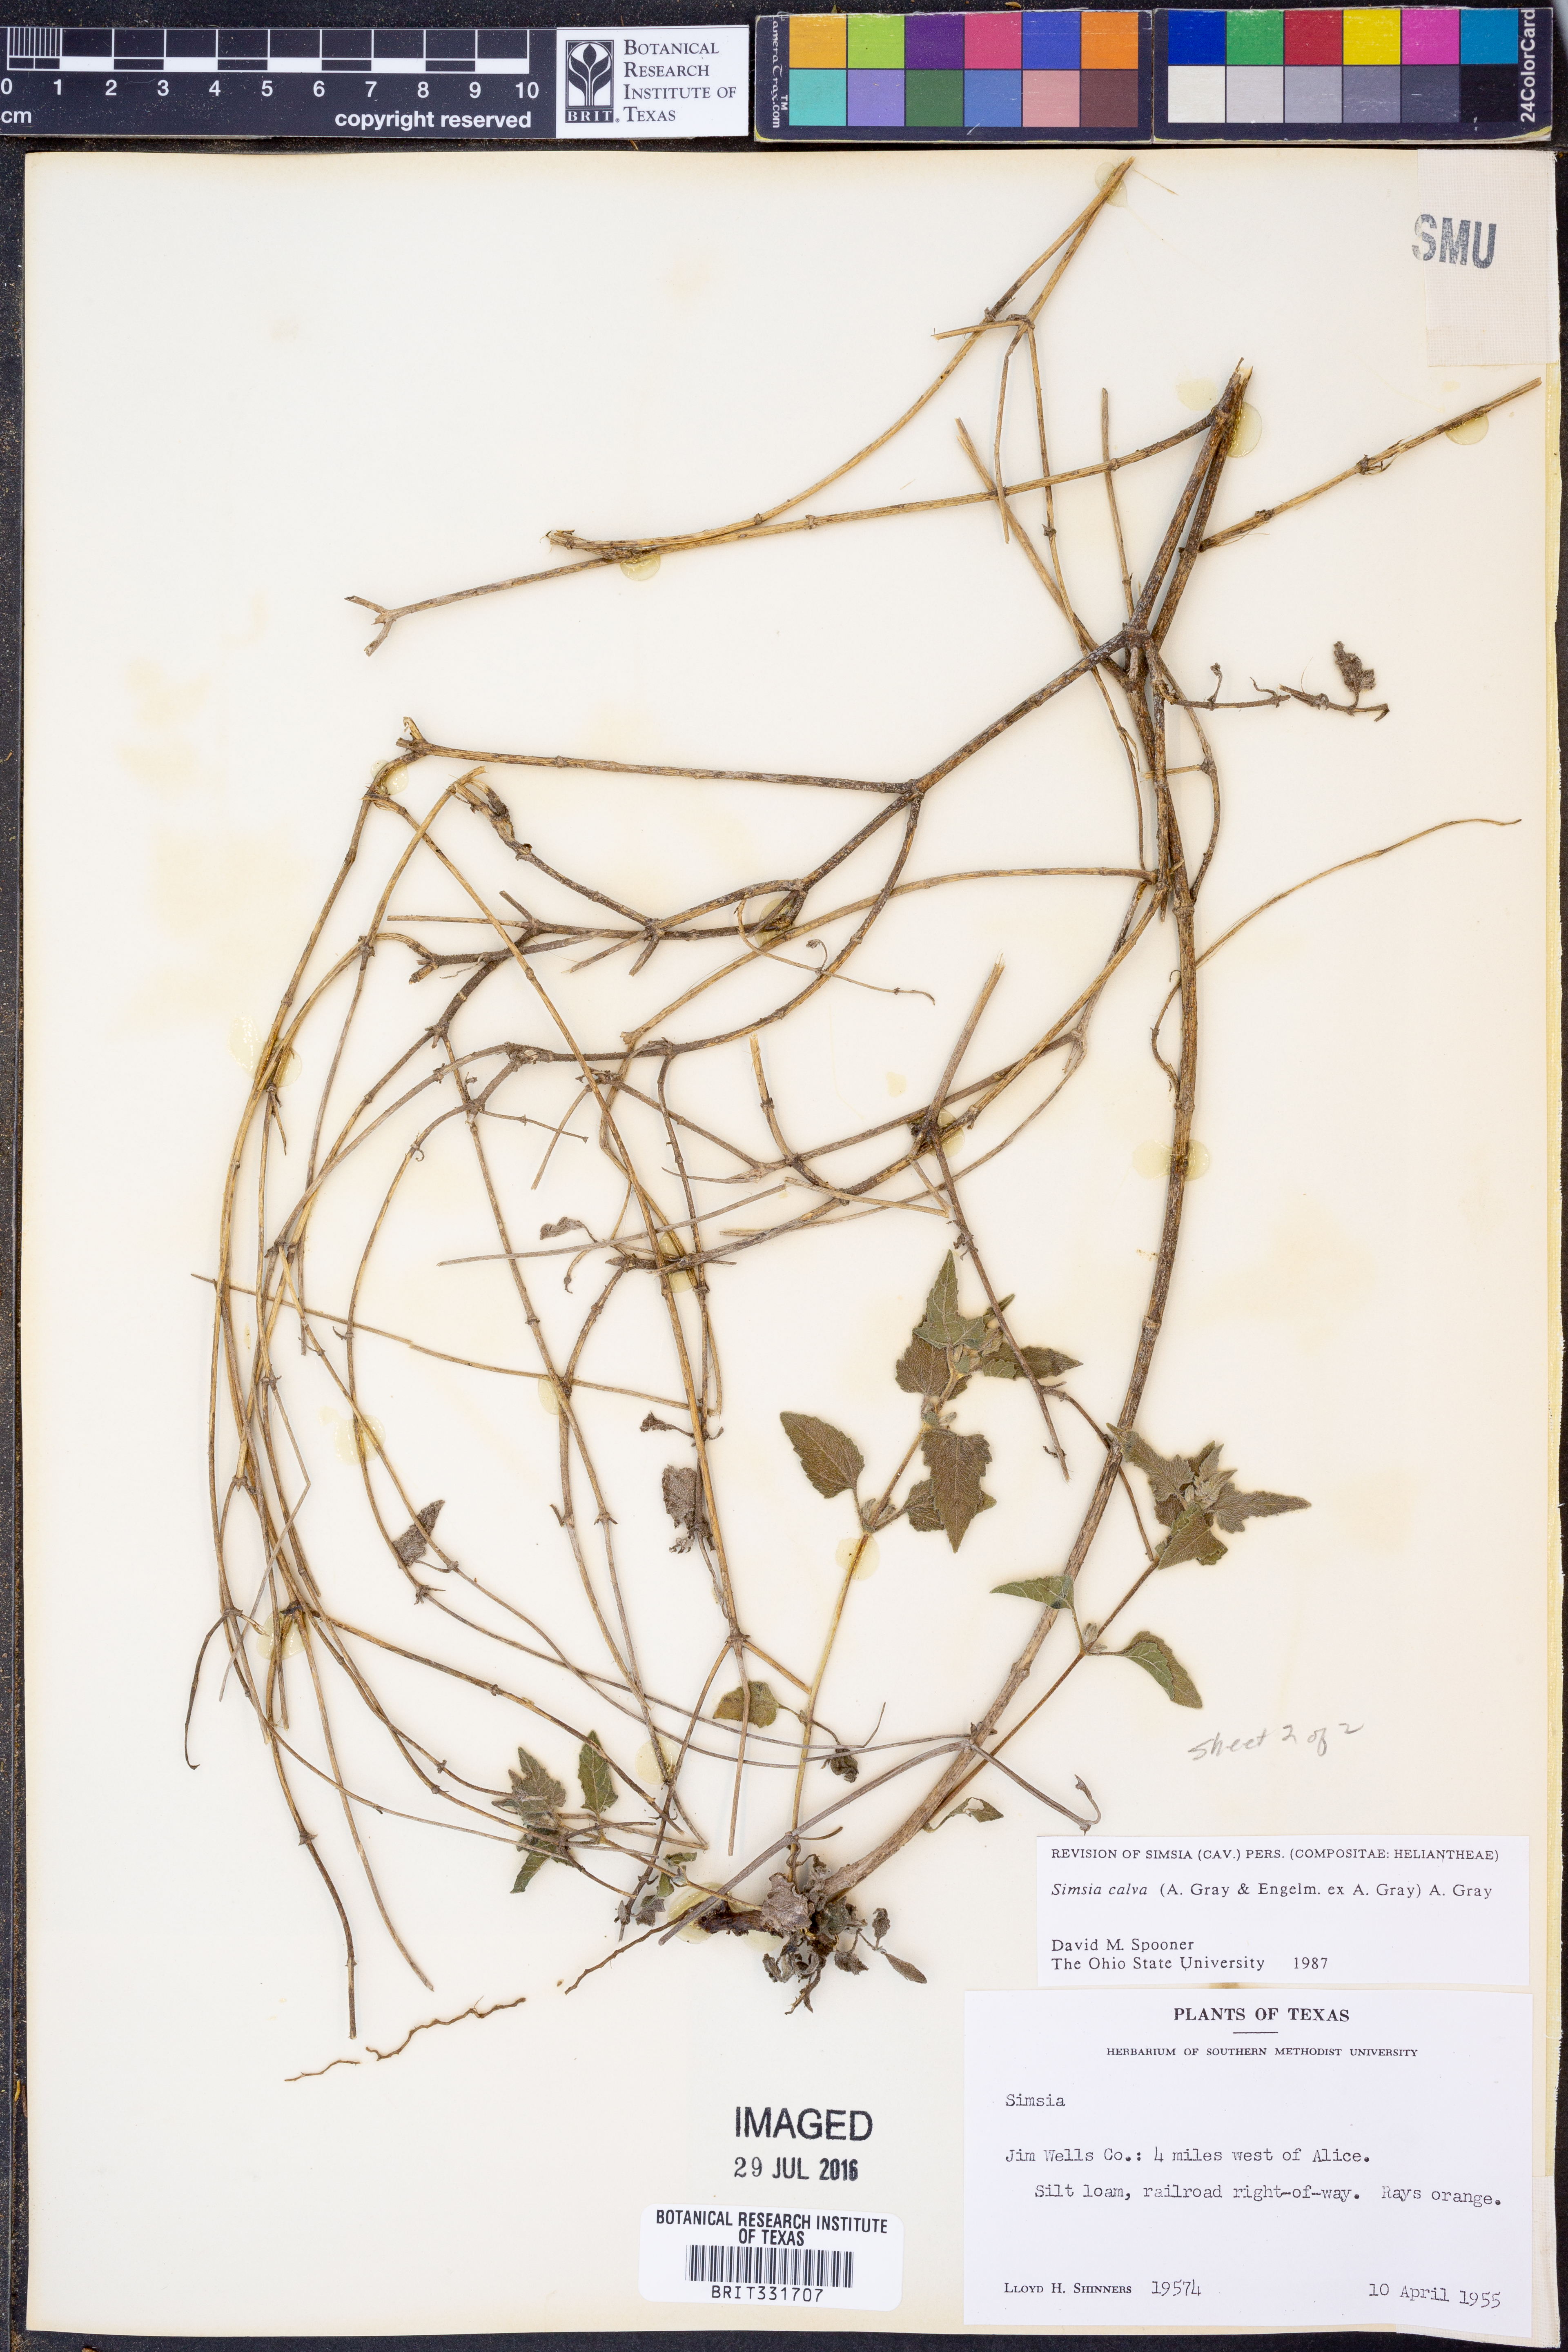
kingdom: Plantae
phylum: Tracheophyta
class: Magnoliopsida
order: Asterales
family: Asteraceae
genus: Simsia
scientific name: Simsia calva
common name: Awnless bush-sunflower
